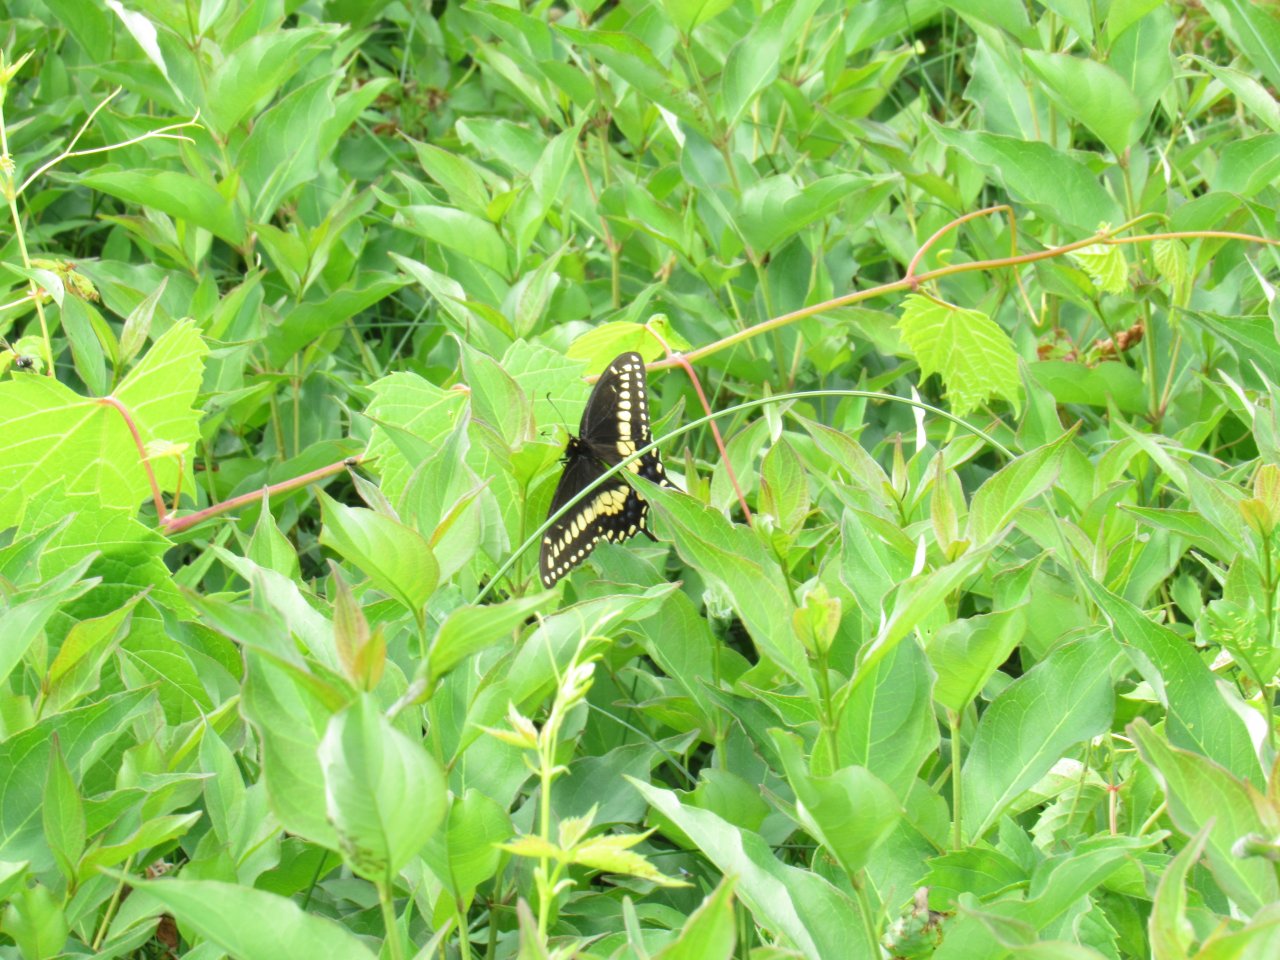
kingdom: Animalia
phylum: Arthropoda
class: Insecta
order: Lepidoptera
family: Papilionidae
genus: Papilio
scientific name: Papilio polyxenes
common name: Black Swallowtail
